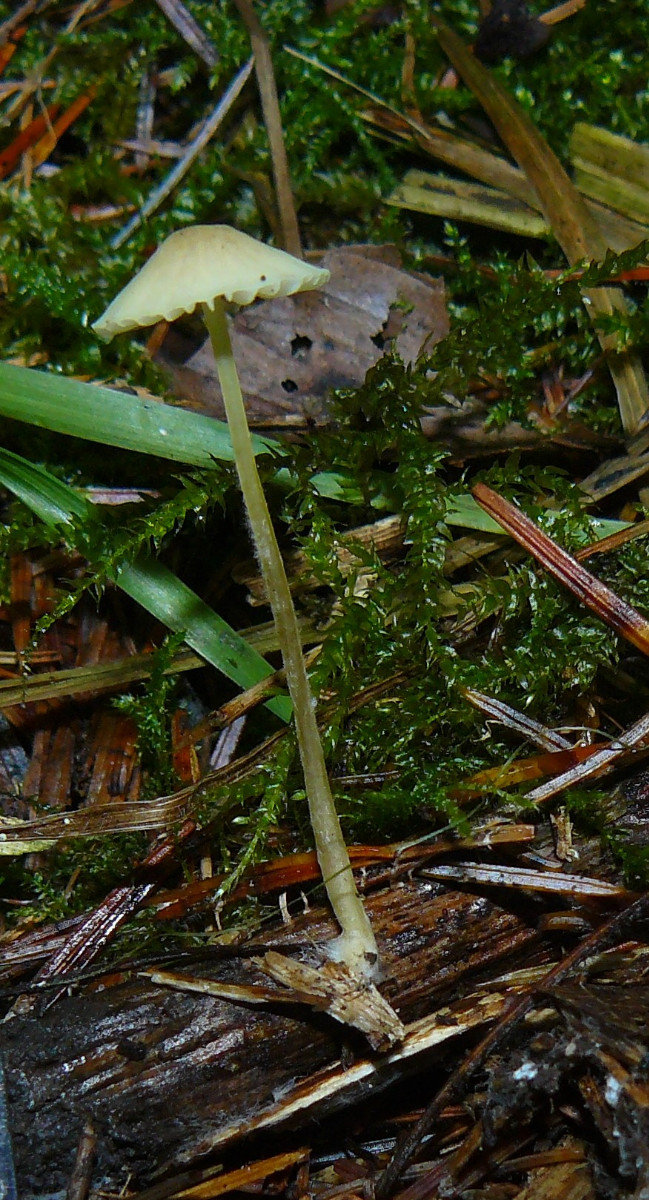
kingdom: Fungi
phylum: Basidiomycota
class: Agaricomycetes
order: Agaricales
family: Mycenaceae
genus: Mycena
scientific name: Mycena
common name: huesvamp
